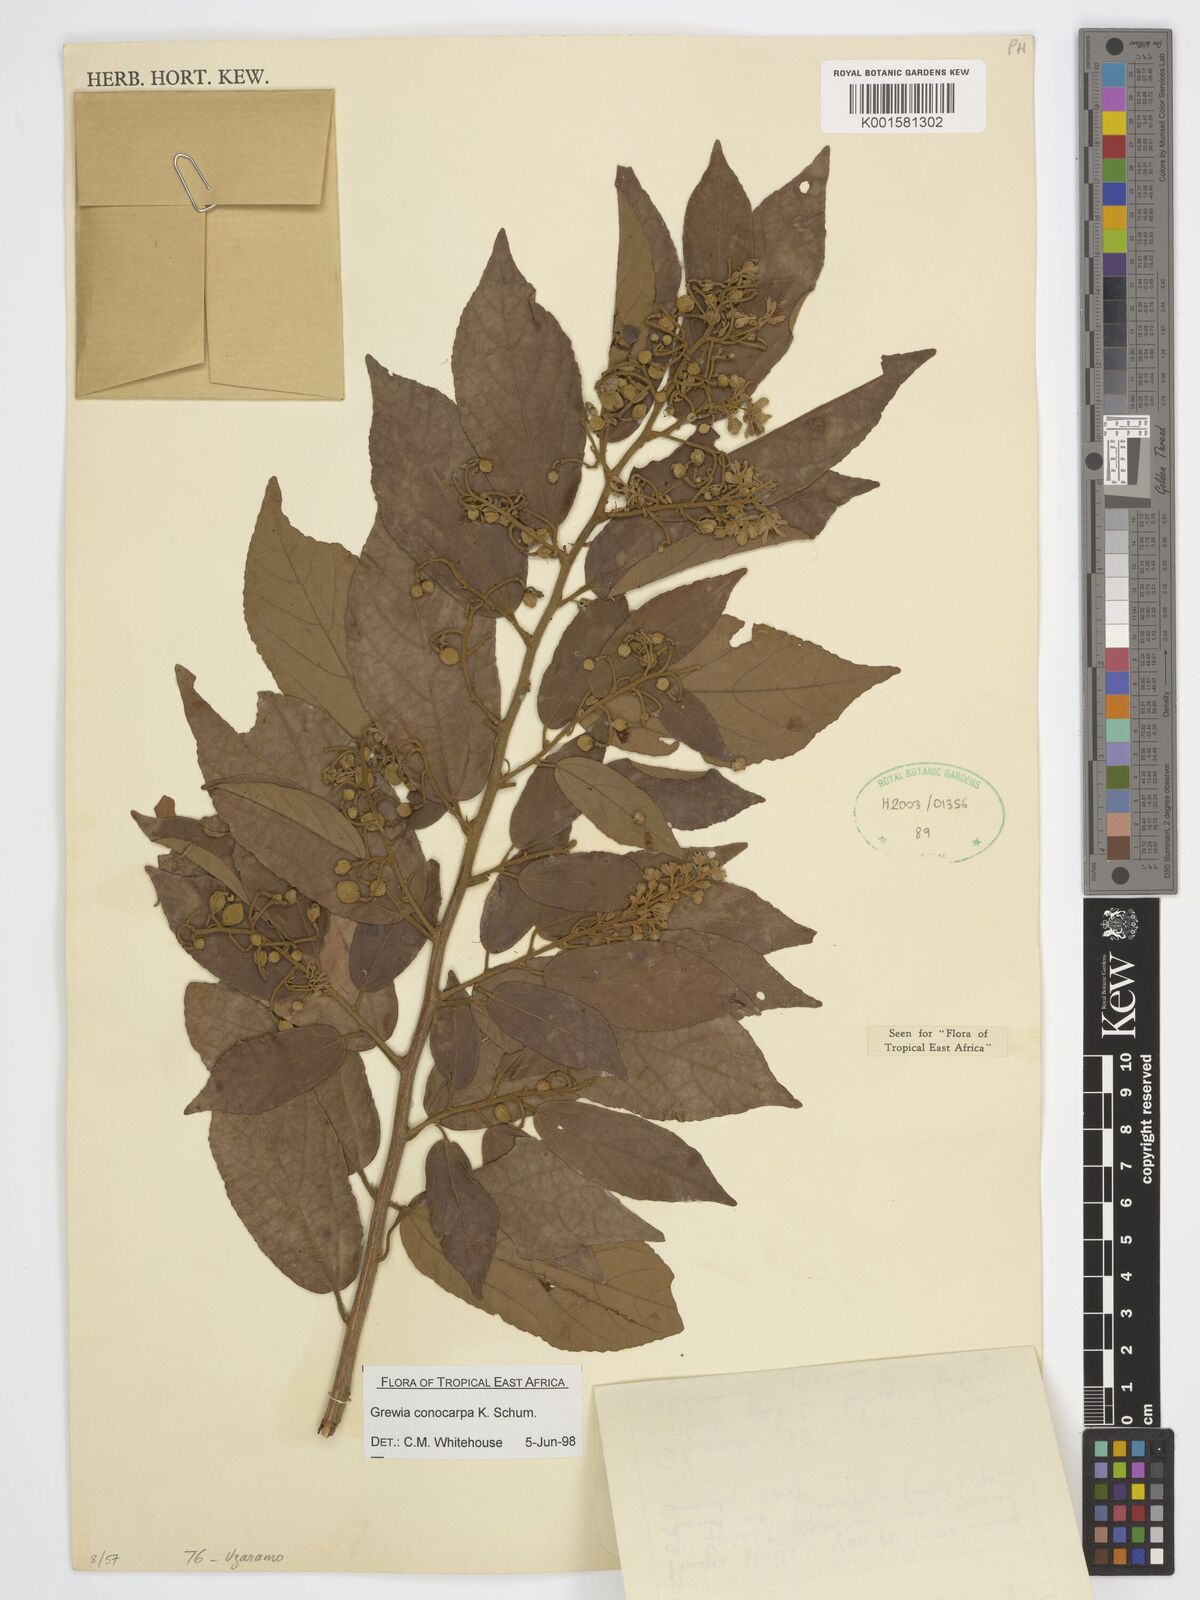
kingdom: Plantae
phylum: Tracheophyta
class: Magnoliopsida
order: Malvales
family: Malvaceae
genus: Microcos
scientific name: Microcos conocarpa
